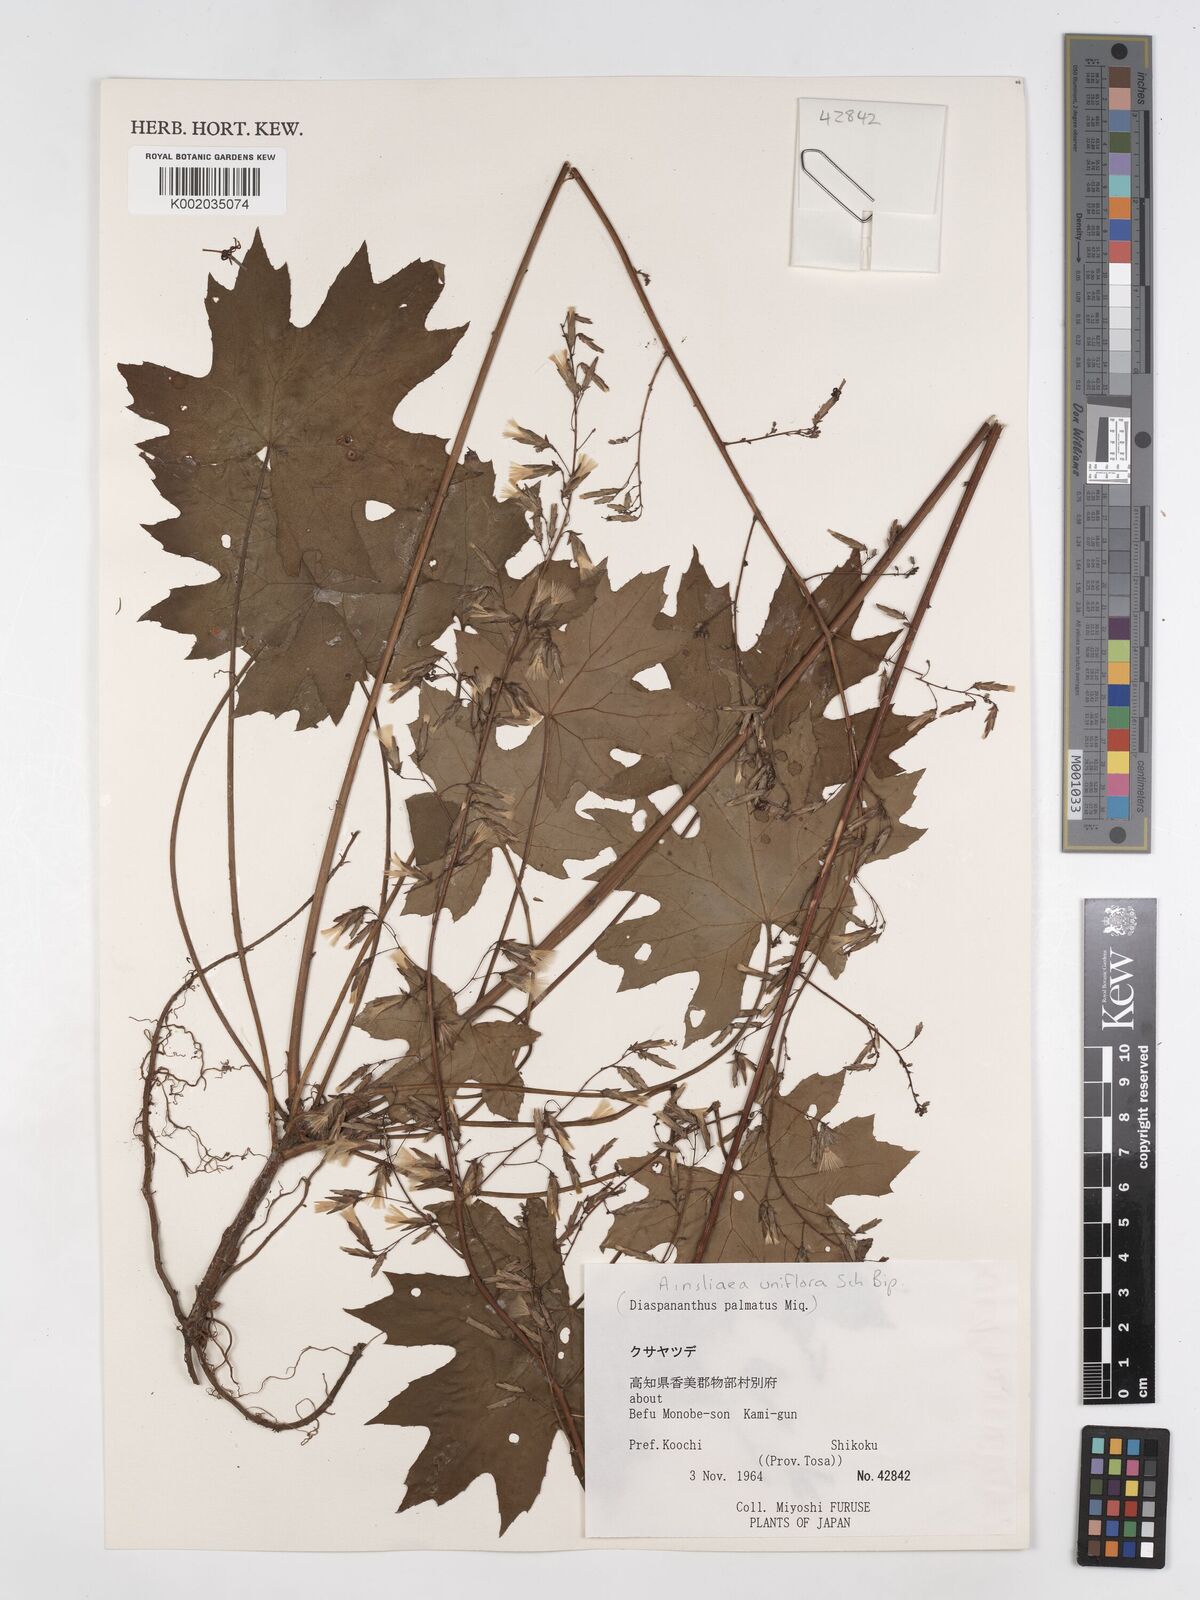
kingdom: Plantae
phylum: Tracheophyta
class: Magnoliopsida
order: Asterales
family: Asteraceae
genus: Ainsliaea
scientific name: Ainsliaea uniflora
